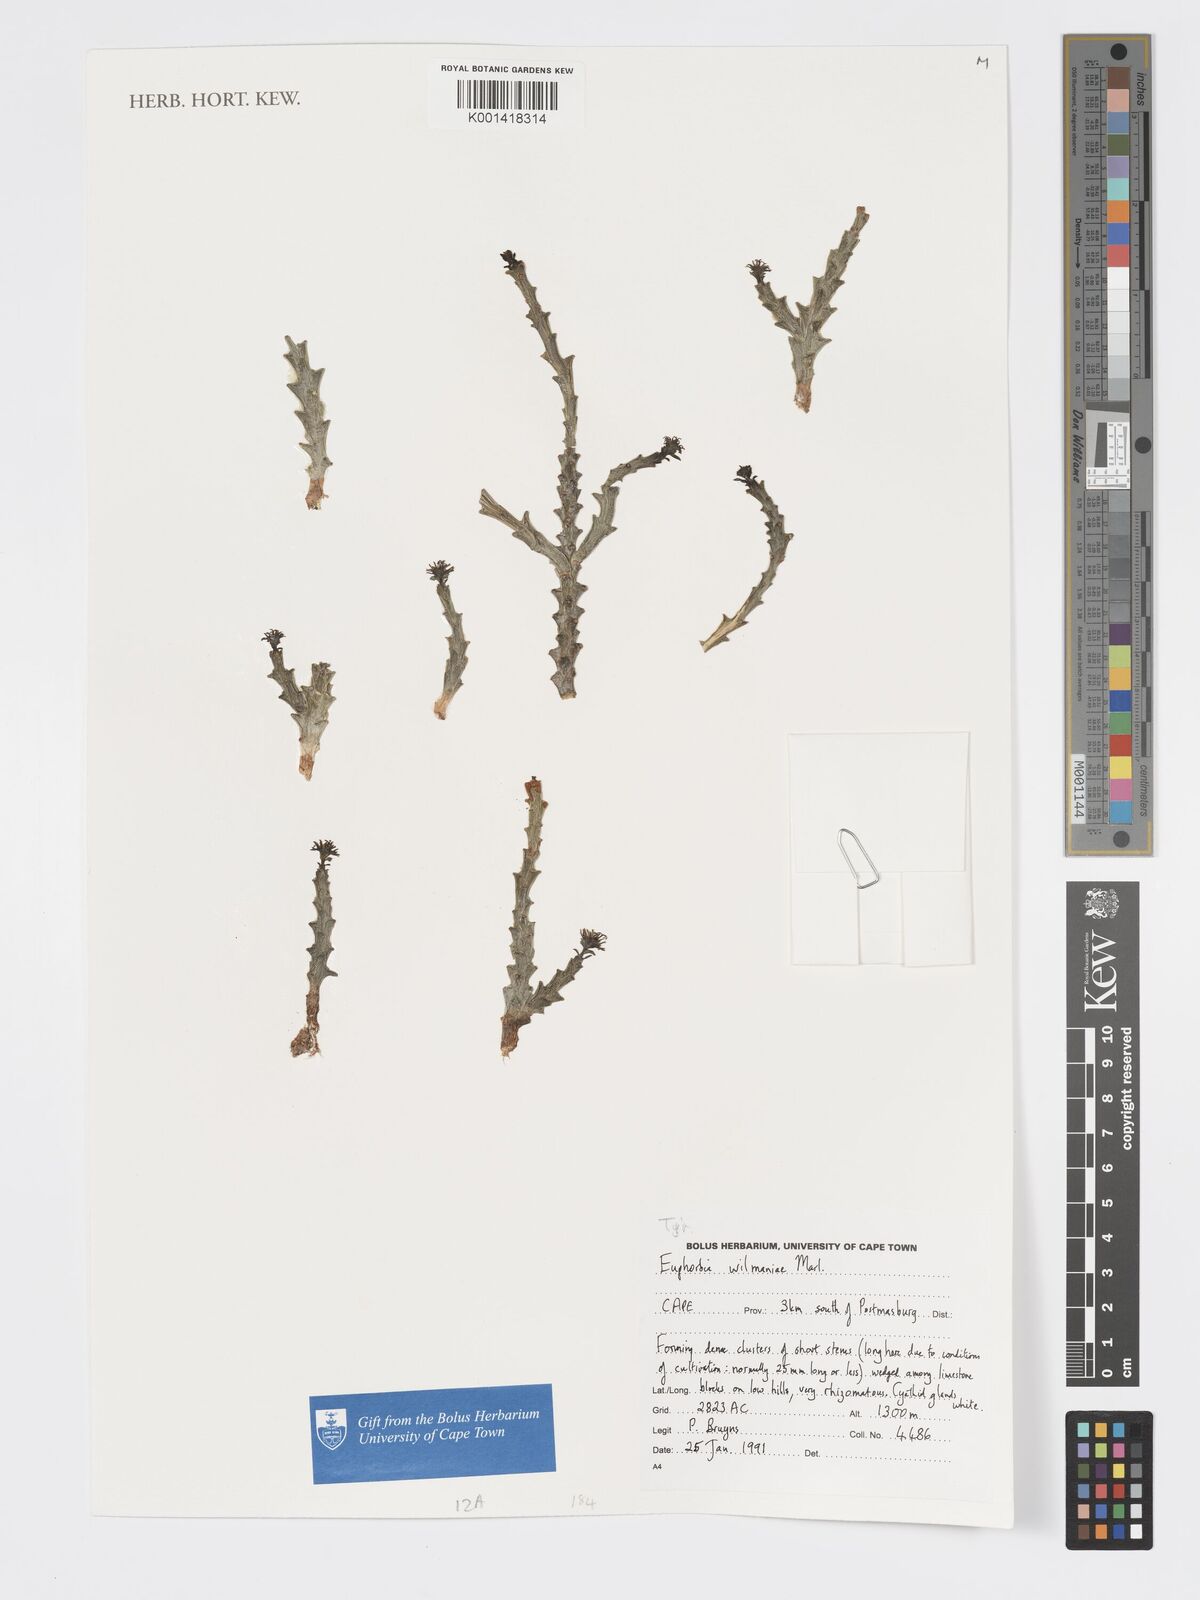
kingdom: Plantae
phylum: Tracheophyta
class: Magnoliopsida
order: Malpighiales
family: Euphorbiaceae
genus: Euphorbia
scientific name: Euphorbia patula
